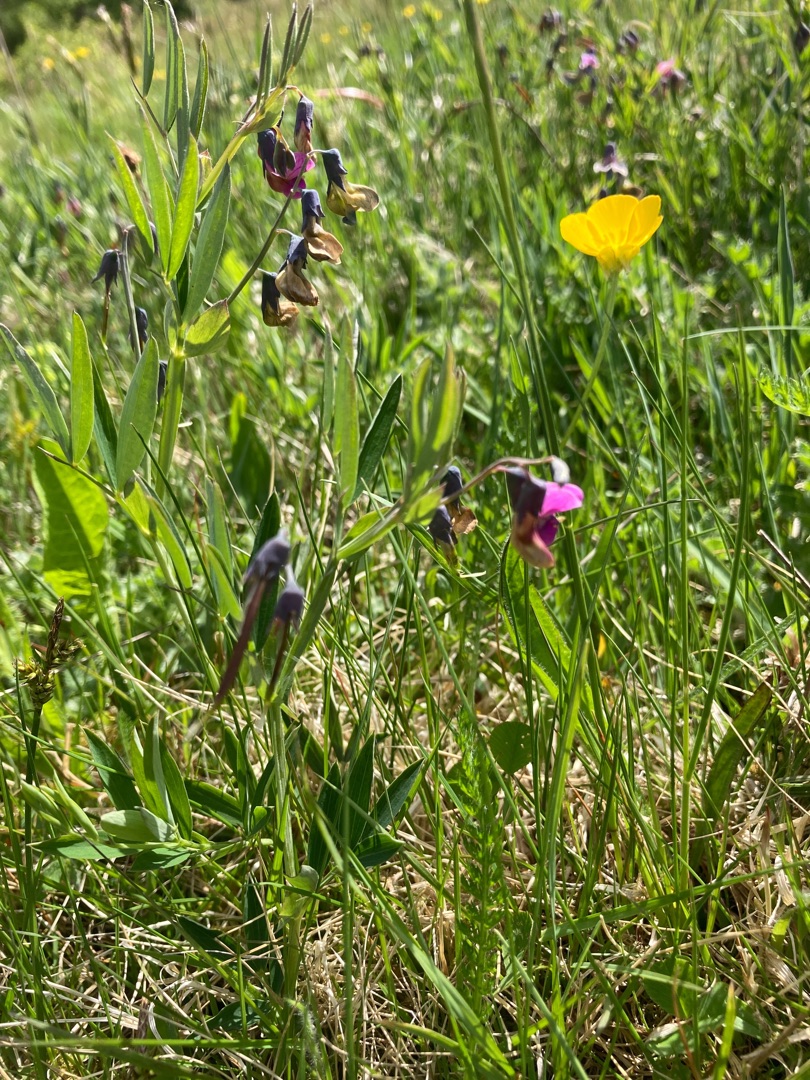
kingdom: Plantae
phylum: Tracheophyta
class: Magnoliopsida
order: Fabales
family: Fabaceae
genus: Lathyrus
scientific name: Lathyrus linifolius
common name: Krat-fladbælg
